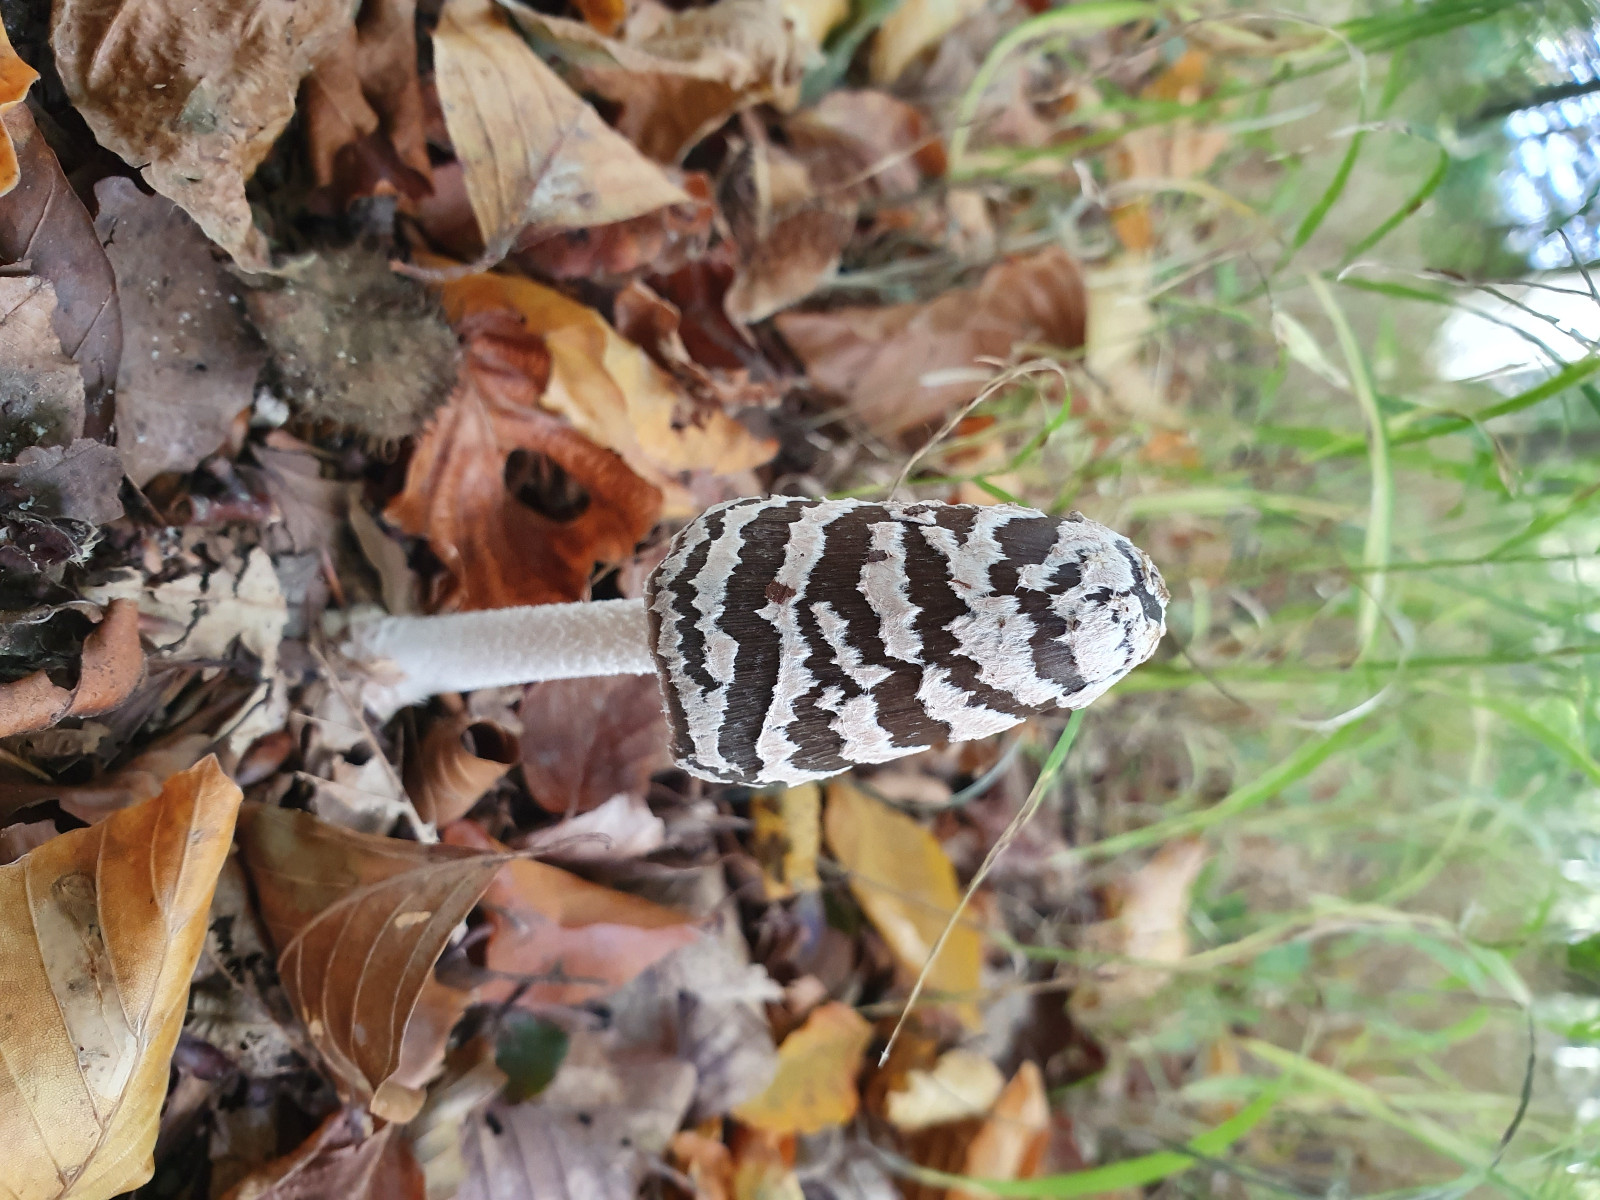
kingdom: Fungi
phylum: Basidiomycota
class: Agaricomycetes
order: Agaricales
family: Psathyrellaceae
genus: Coprinopsis
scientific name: Coprinopsis picacea
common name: skade-blækhat
